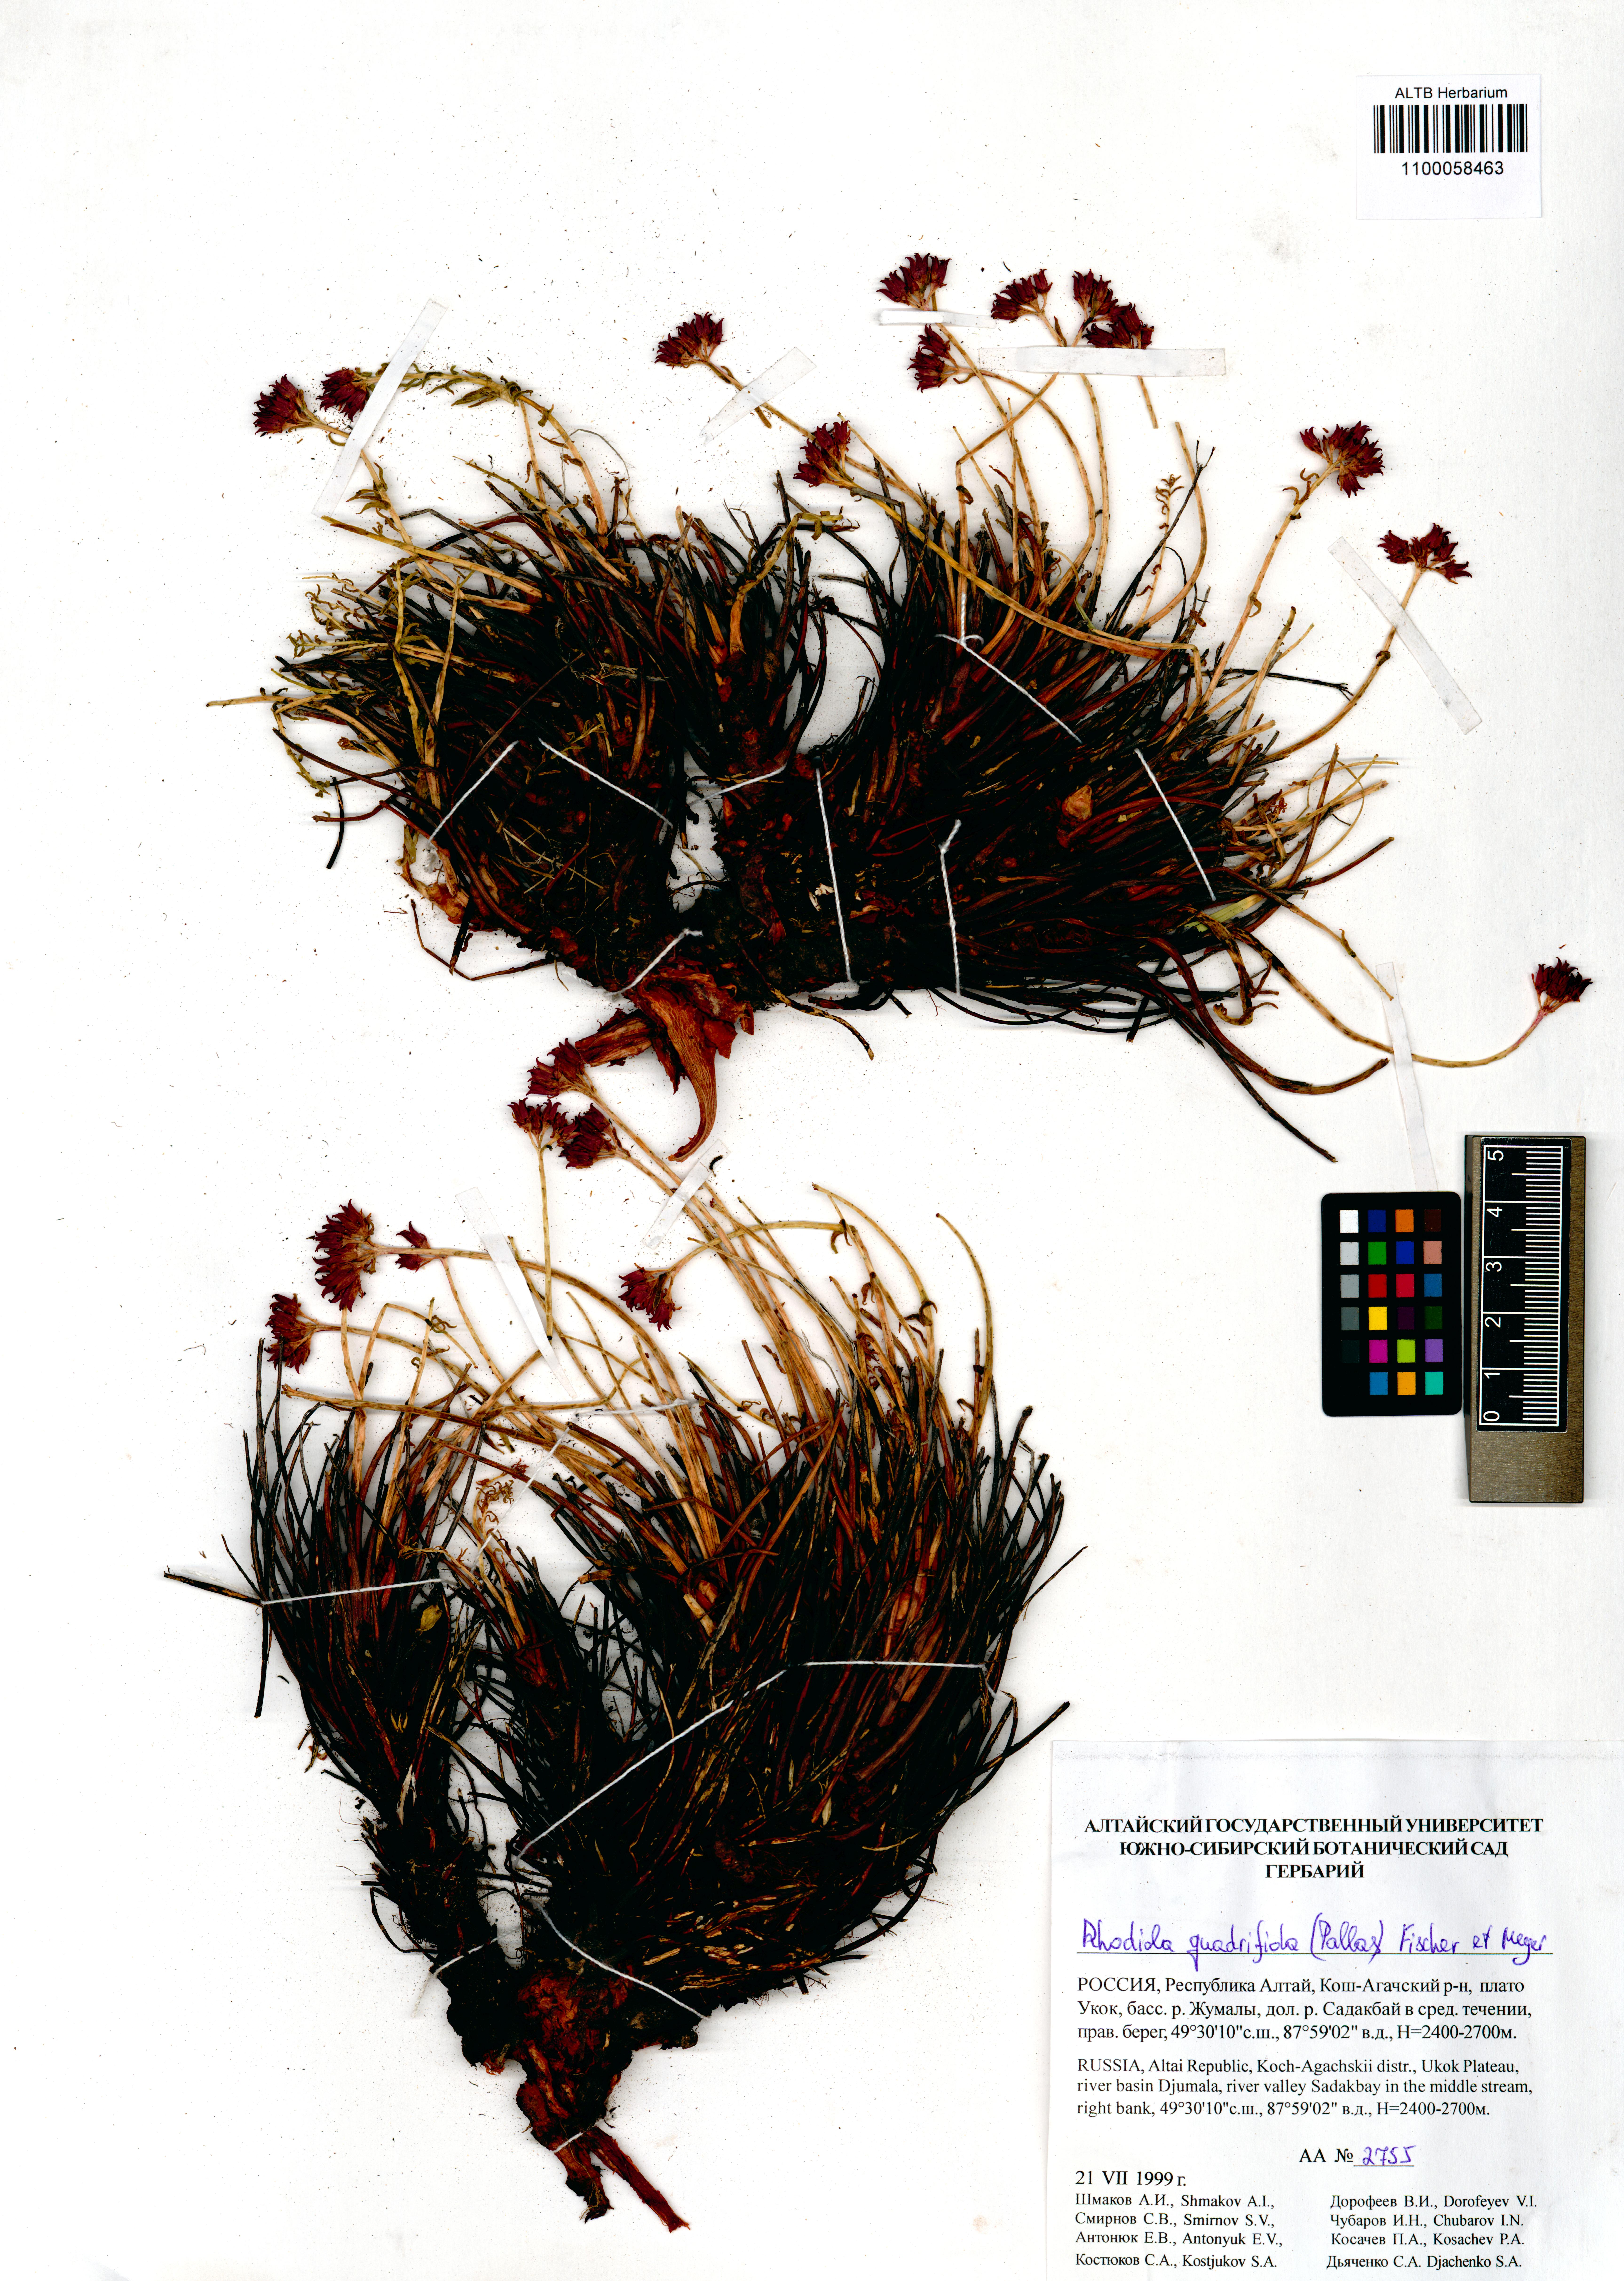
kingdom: Plantae
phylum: Tracheophyta
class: Magnoliopsida
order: Saxifragales
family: Crassulaceae
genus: Rhodiola
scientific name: Rhodiola quadrifida
